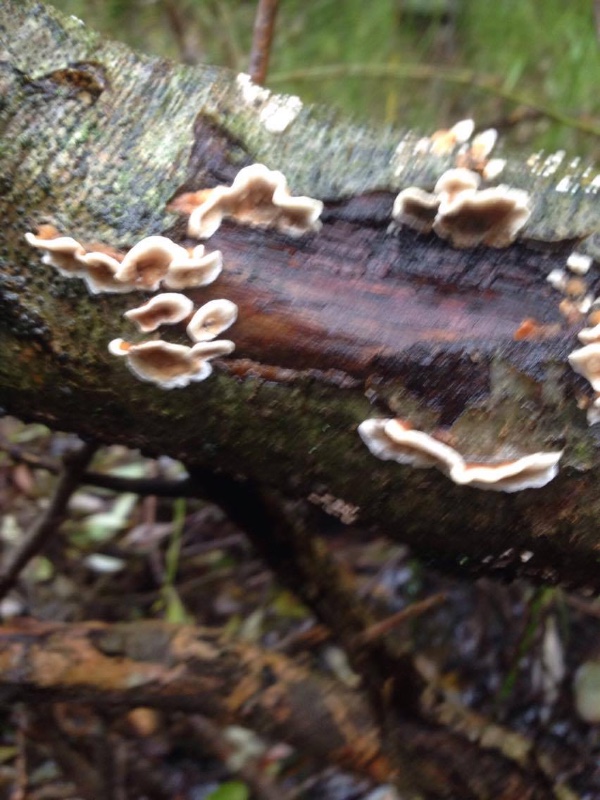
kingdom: Fungi
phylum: Basidiomycota
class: Agaricomycetes
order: Russulales
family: Stereaceae
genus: Stereum
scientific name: Stereum hirsutum
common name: håret lædersvamp
